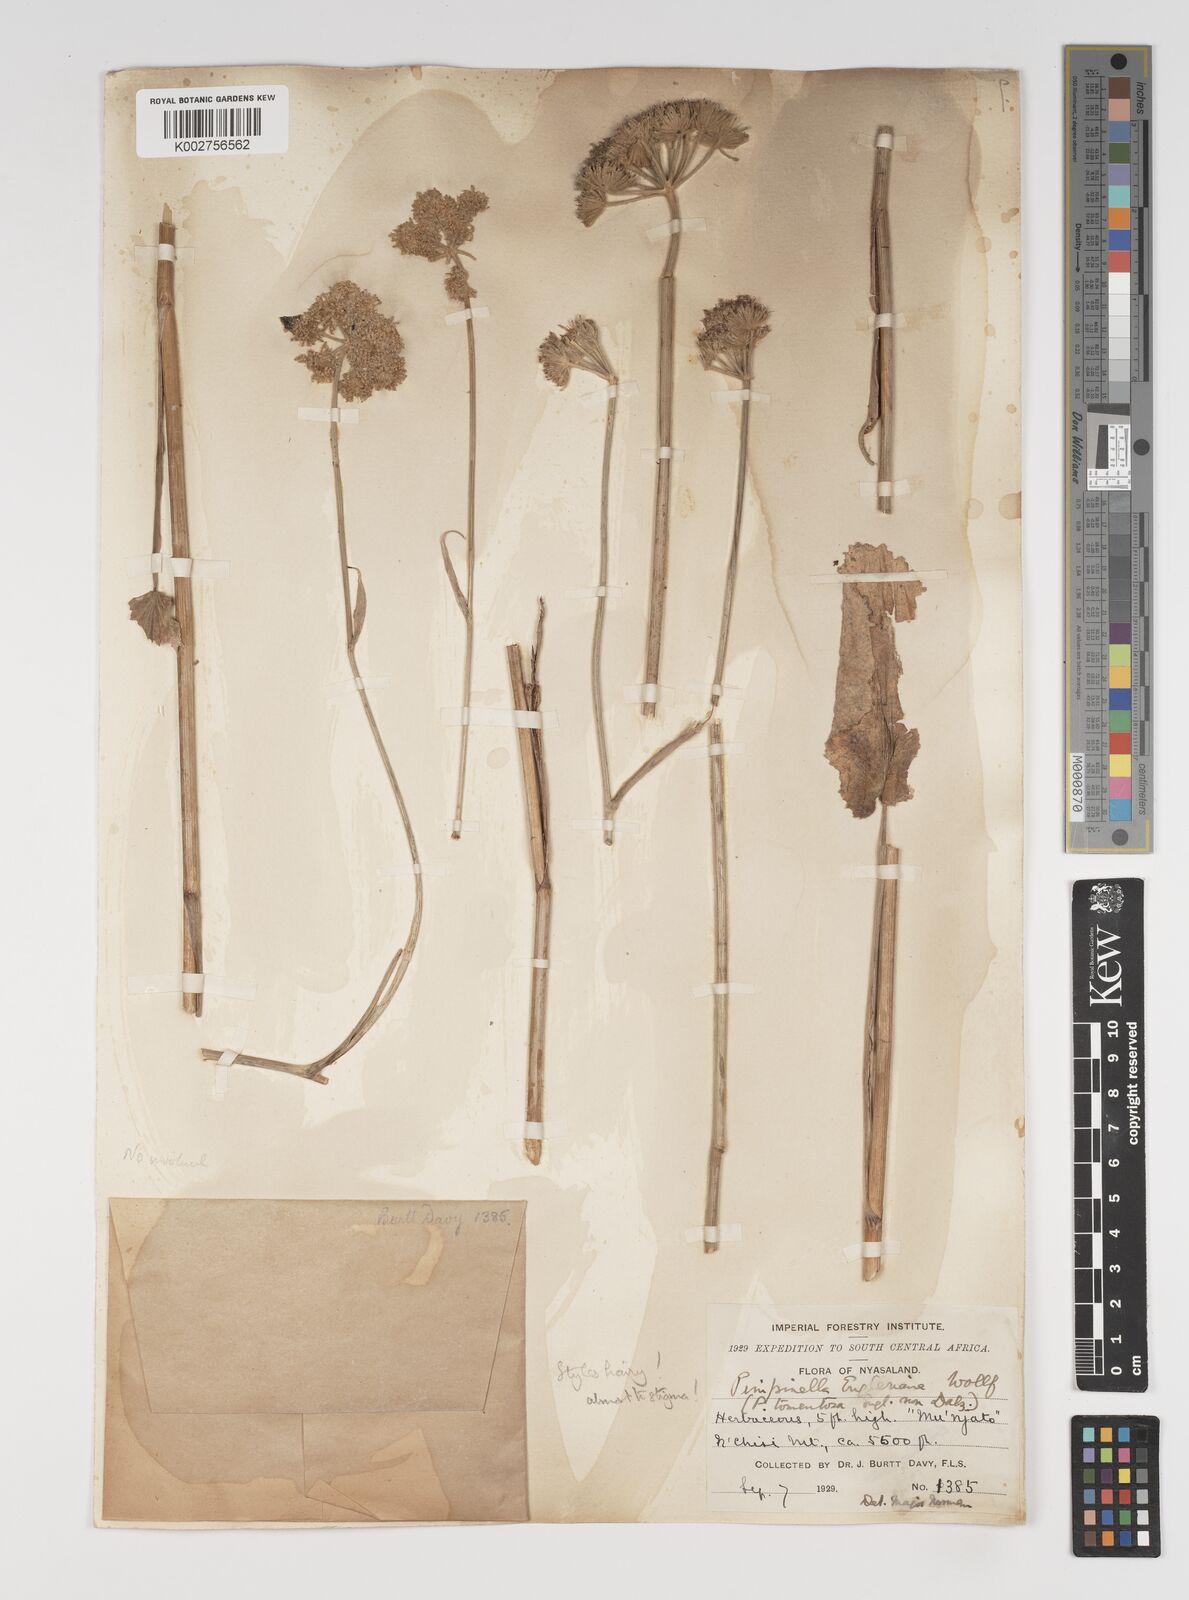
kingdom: Plantae
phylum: Tracheophyta
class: Magnoliopsida
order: Apiales
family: Apiaceae
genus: Pimpinella
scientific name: Pimpinella kingdon-wardii
